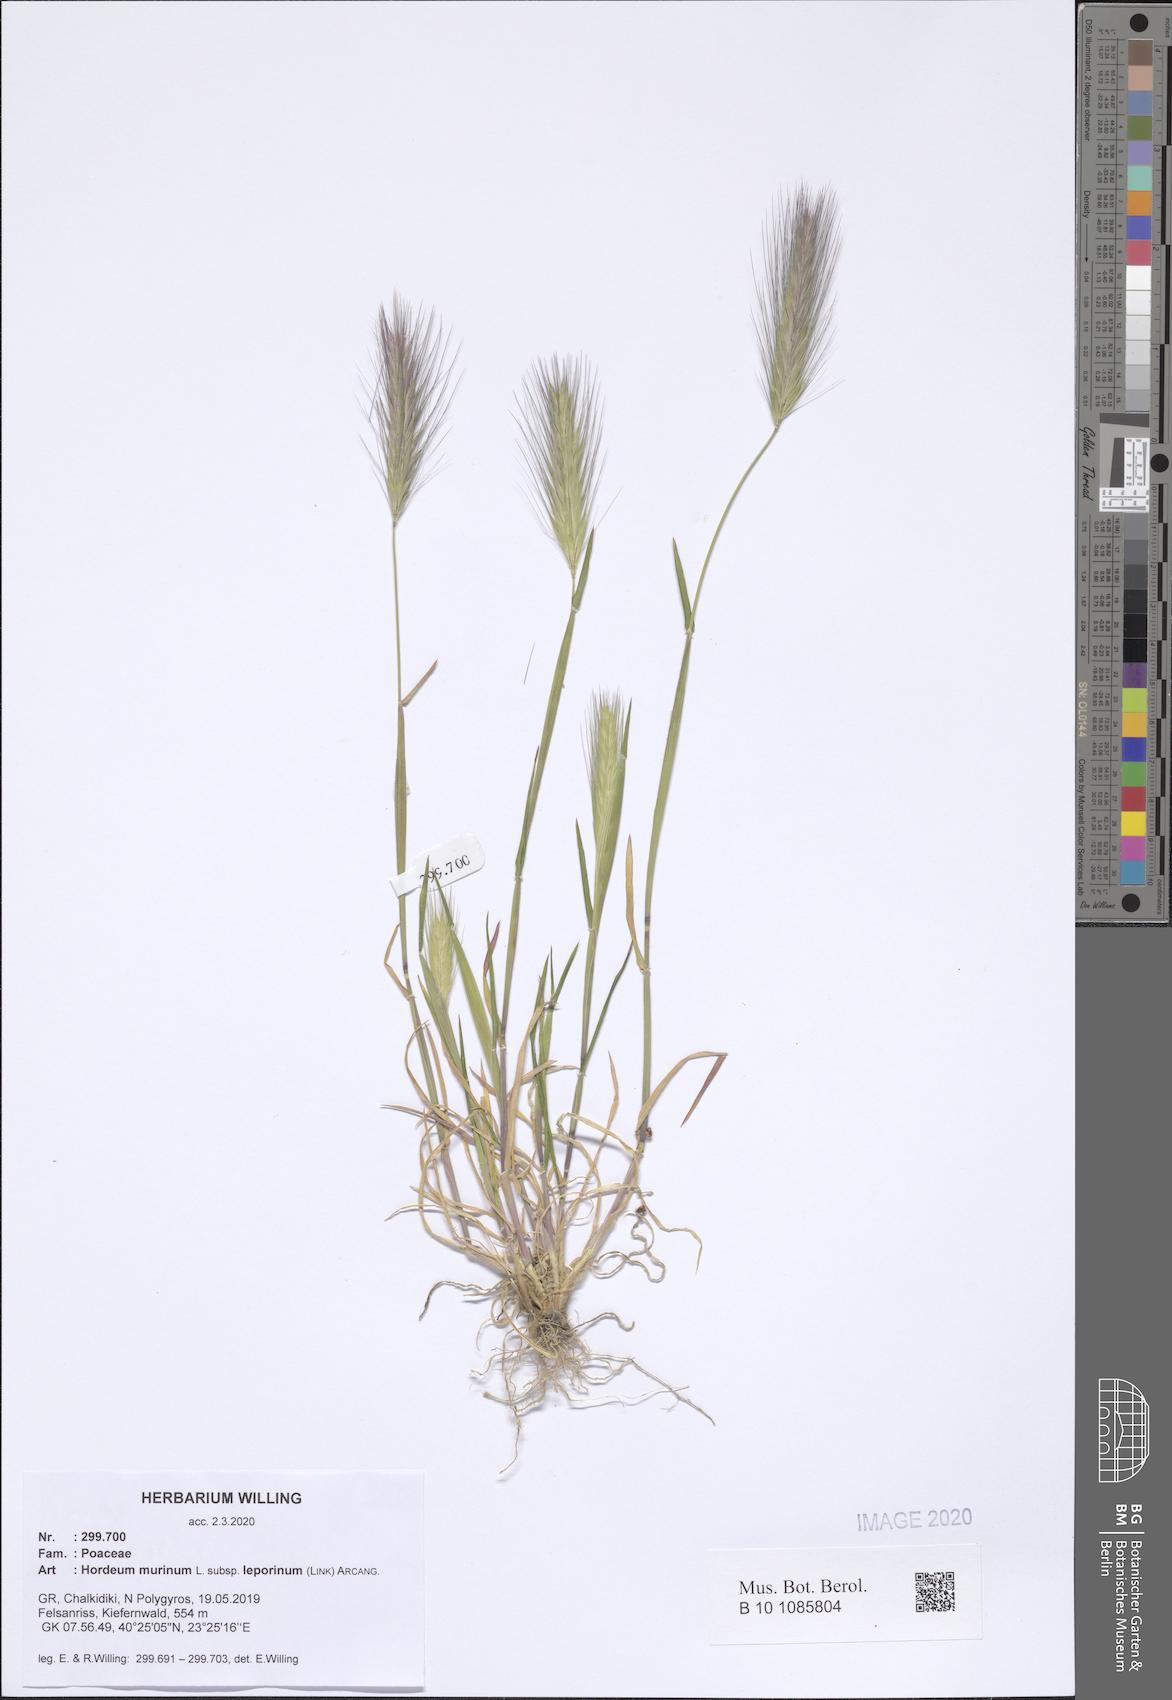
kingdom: Plantae
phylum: Tracheophyta
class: Liliopsida
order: Poales
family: Poaceae
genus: Hordeum
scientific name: Hordeum murinum
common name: Wall barley
